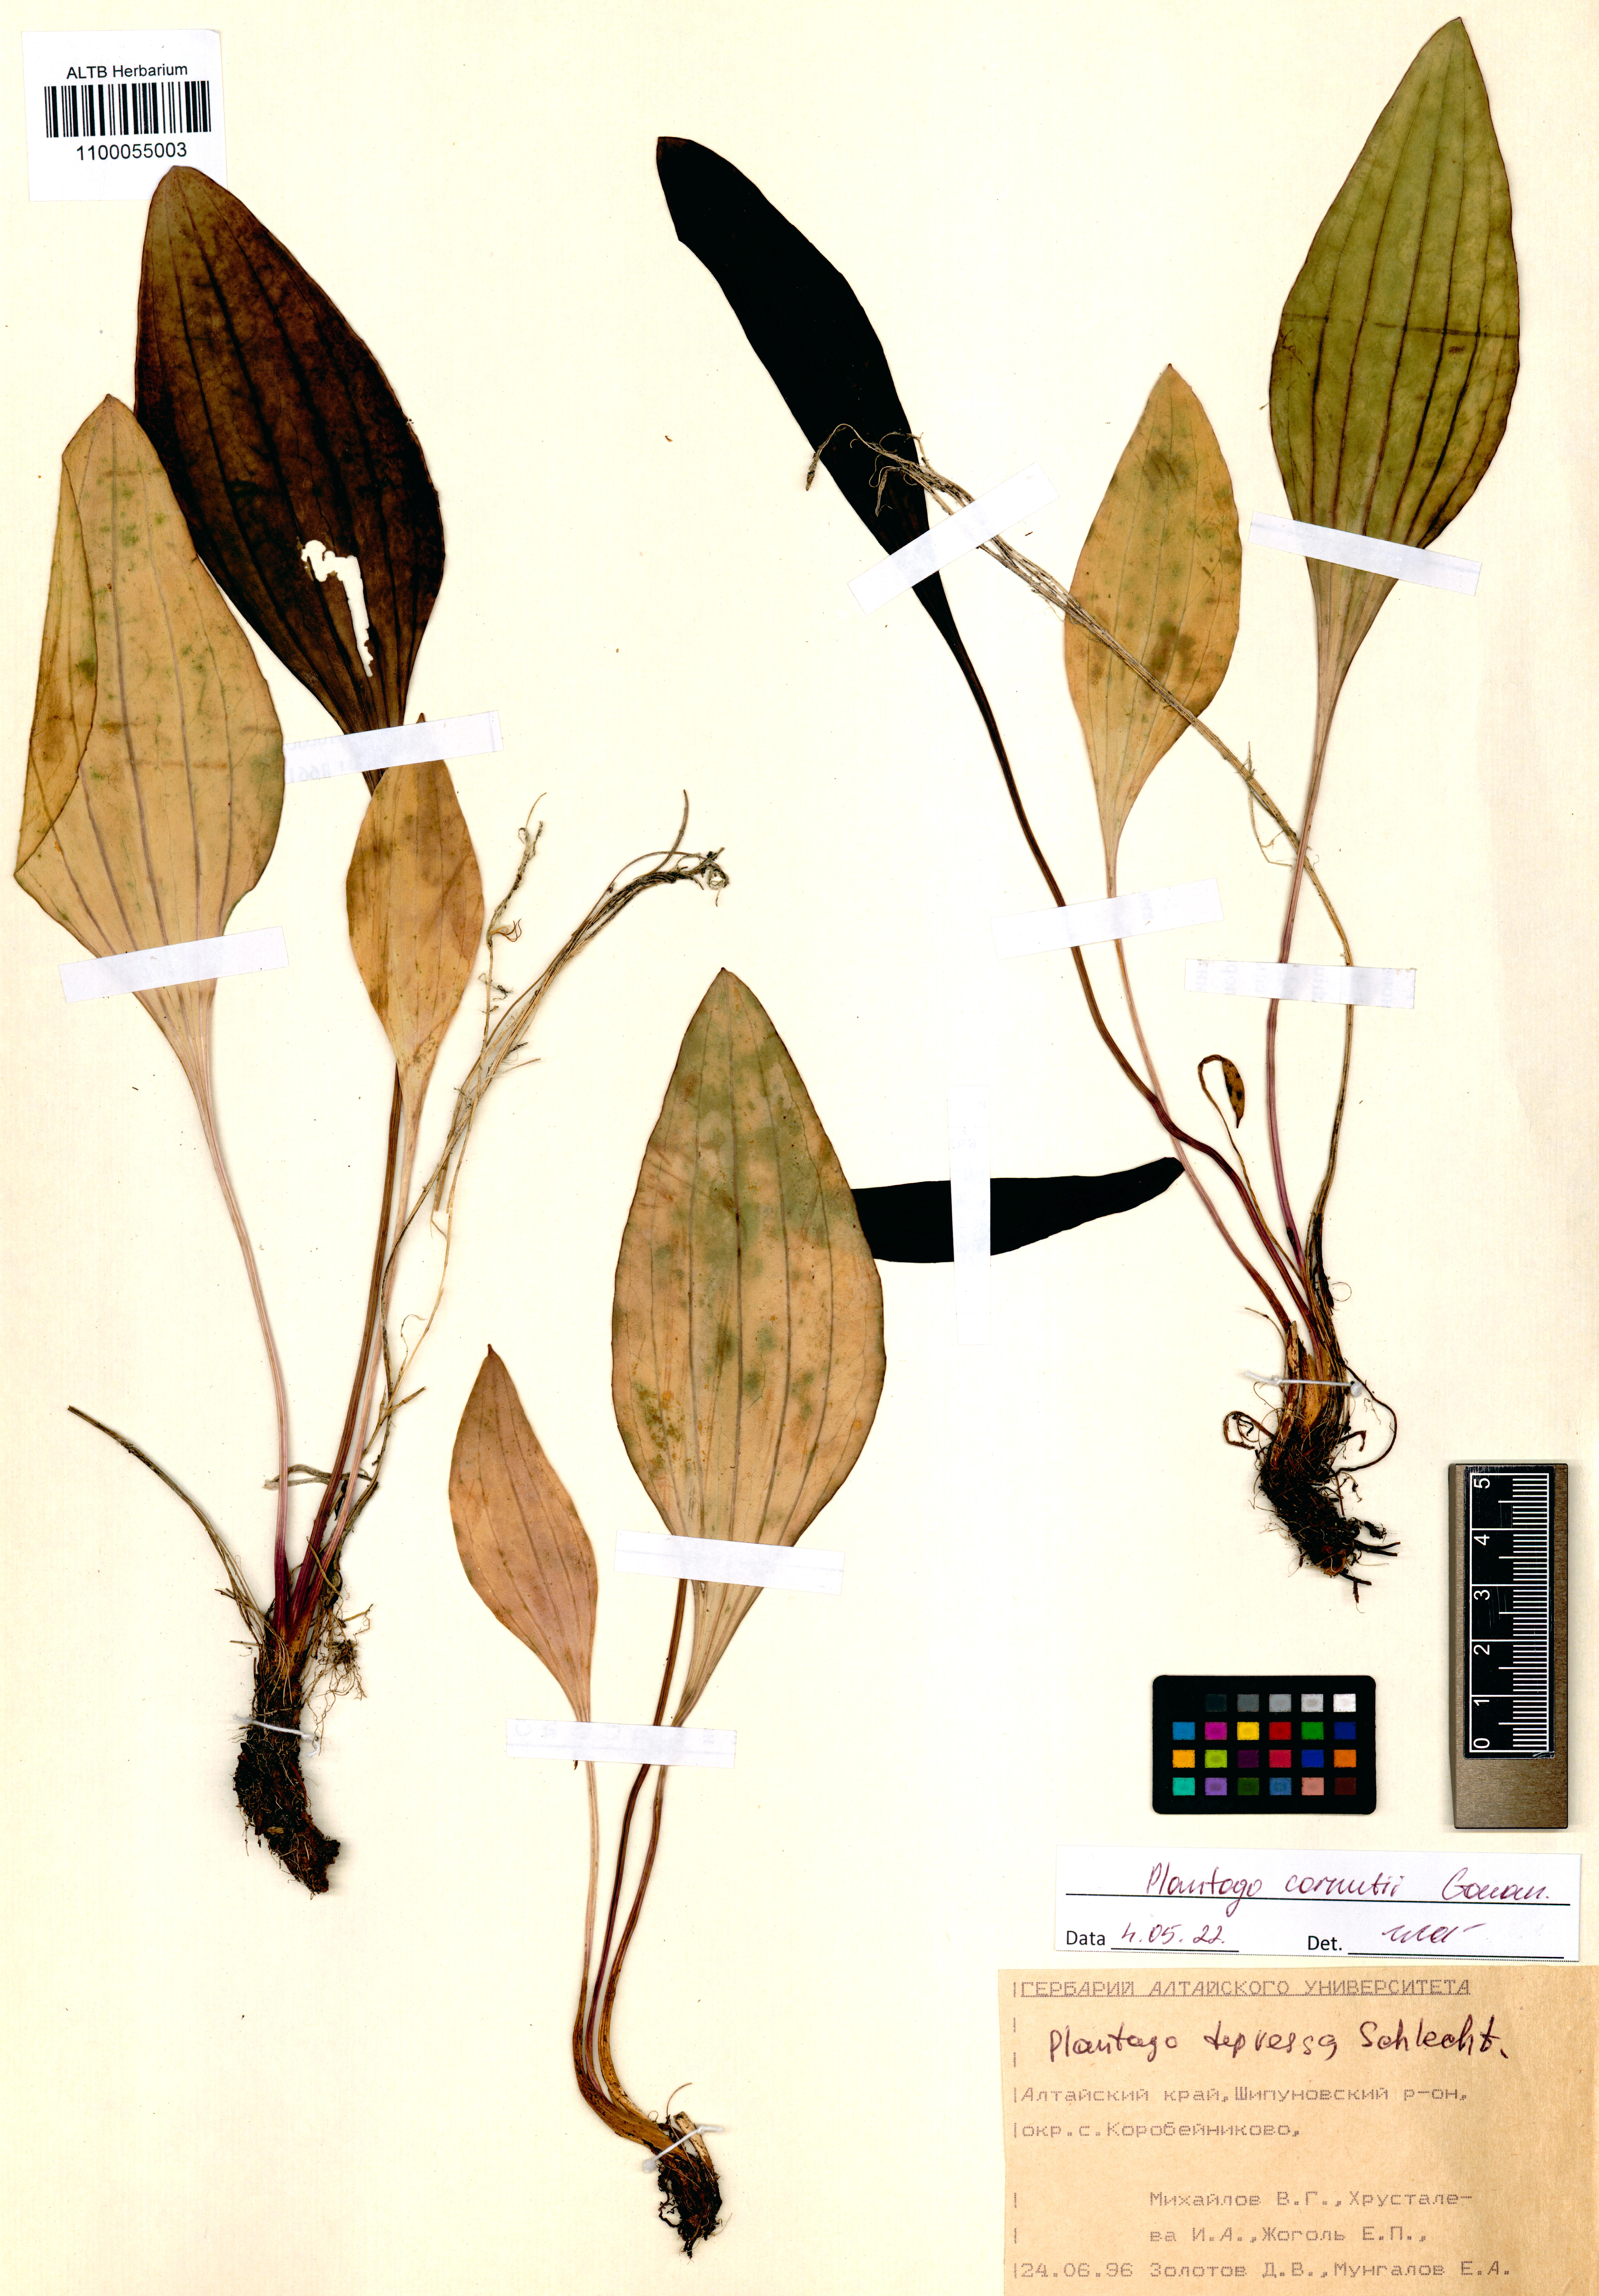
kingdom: Plantae
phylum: Tracheophyta
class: Magnoliopsida
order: Lamiales
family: Plantaginaceae
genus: Plantago
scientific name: Plantago cornuti
